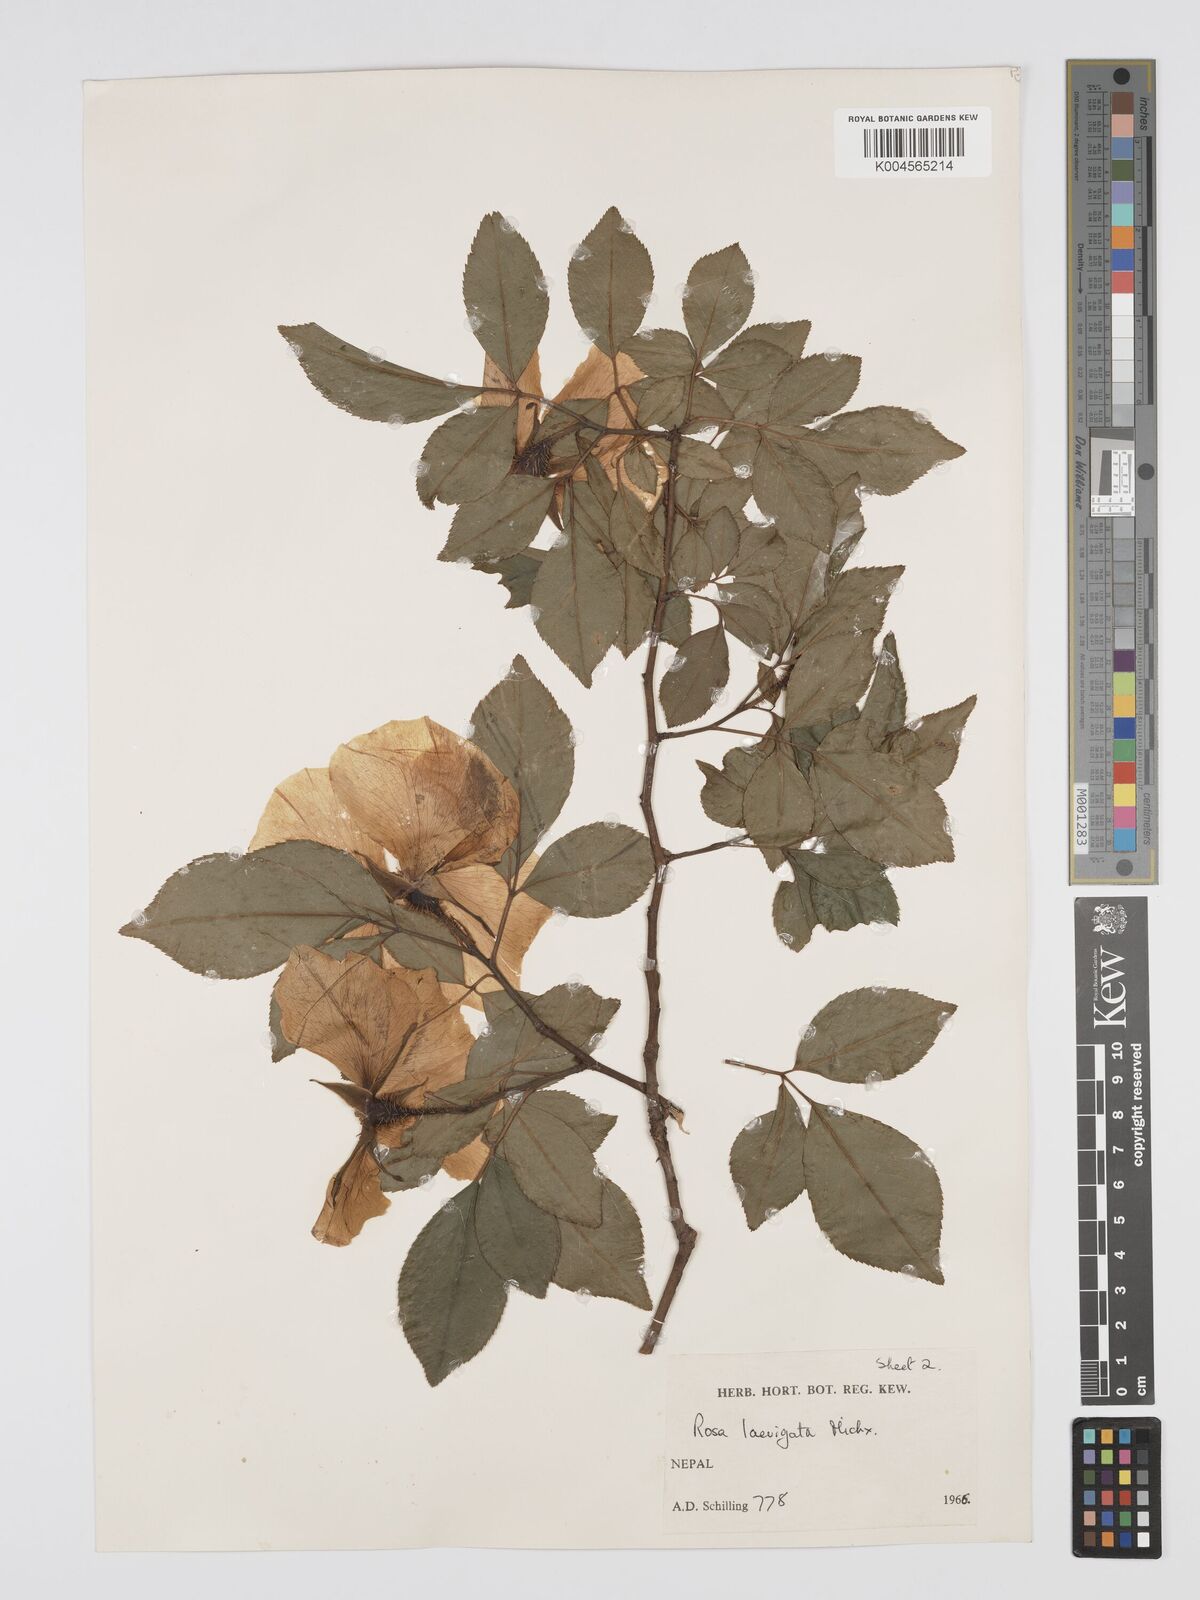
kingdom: Plantae
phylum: Tracheophyta
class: Magnoliopsida
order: Rosales
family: Rosaceae
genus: Rosa
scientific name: Rosa laevigata
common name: Cherokee rose
